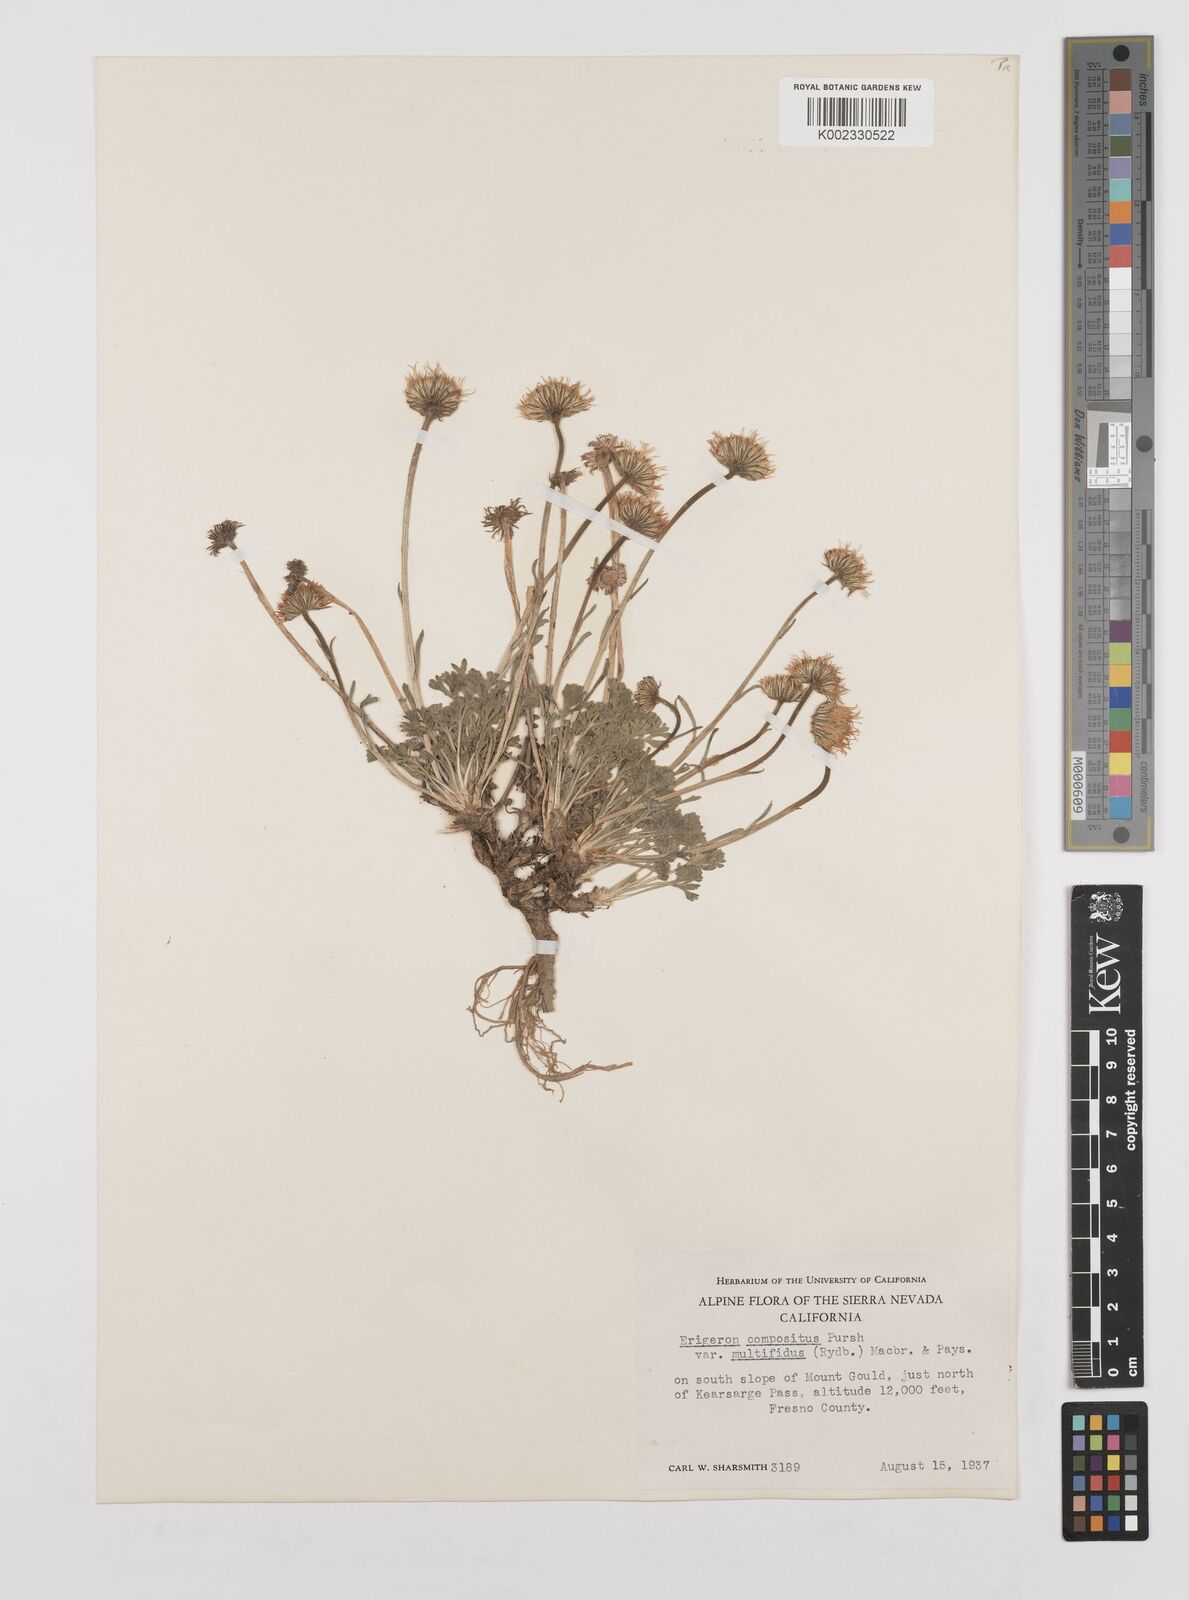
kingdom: Plantae
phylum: Tracheophyta
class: Magnoliopsida
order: Asterales
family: Asteraceae
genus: Erigeron
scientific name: Erigeron compositus
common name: Dwarf mountain fleabane
